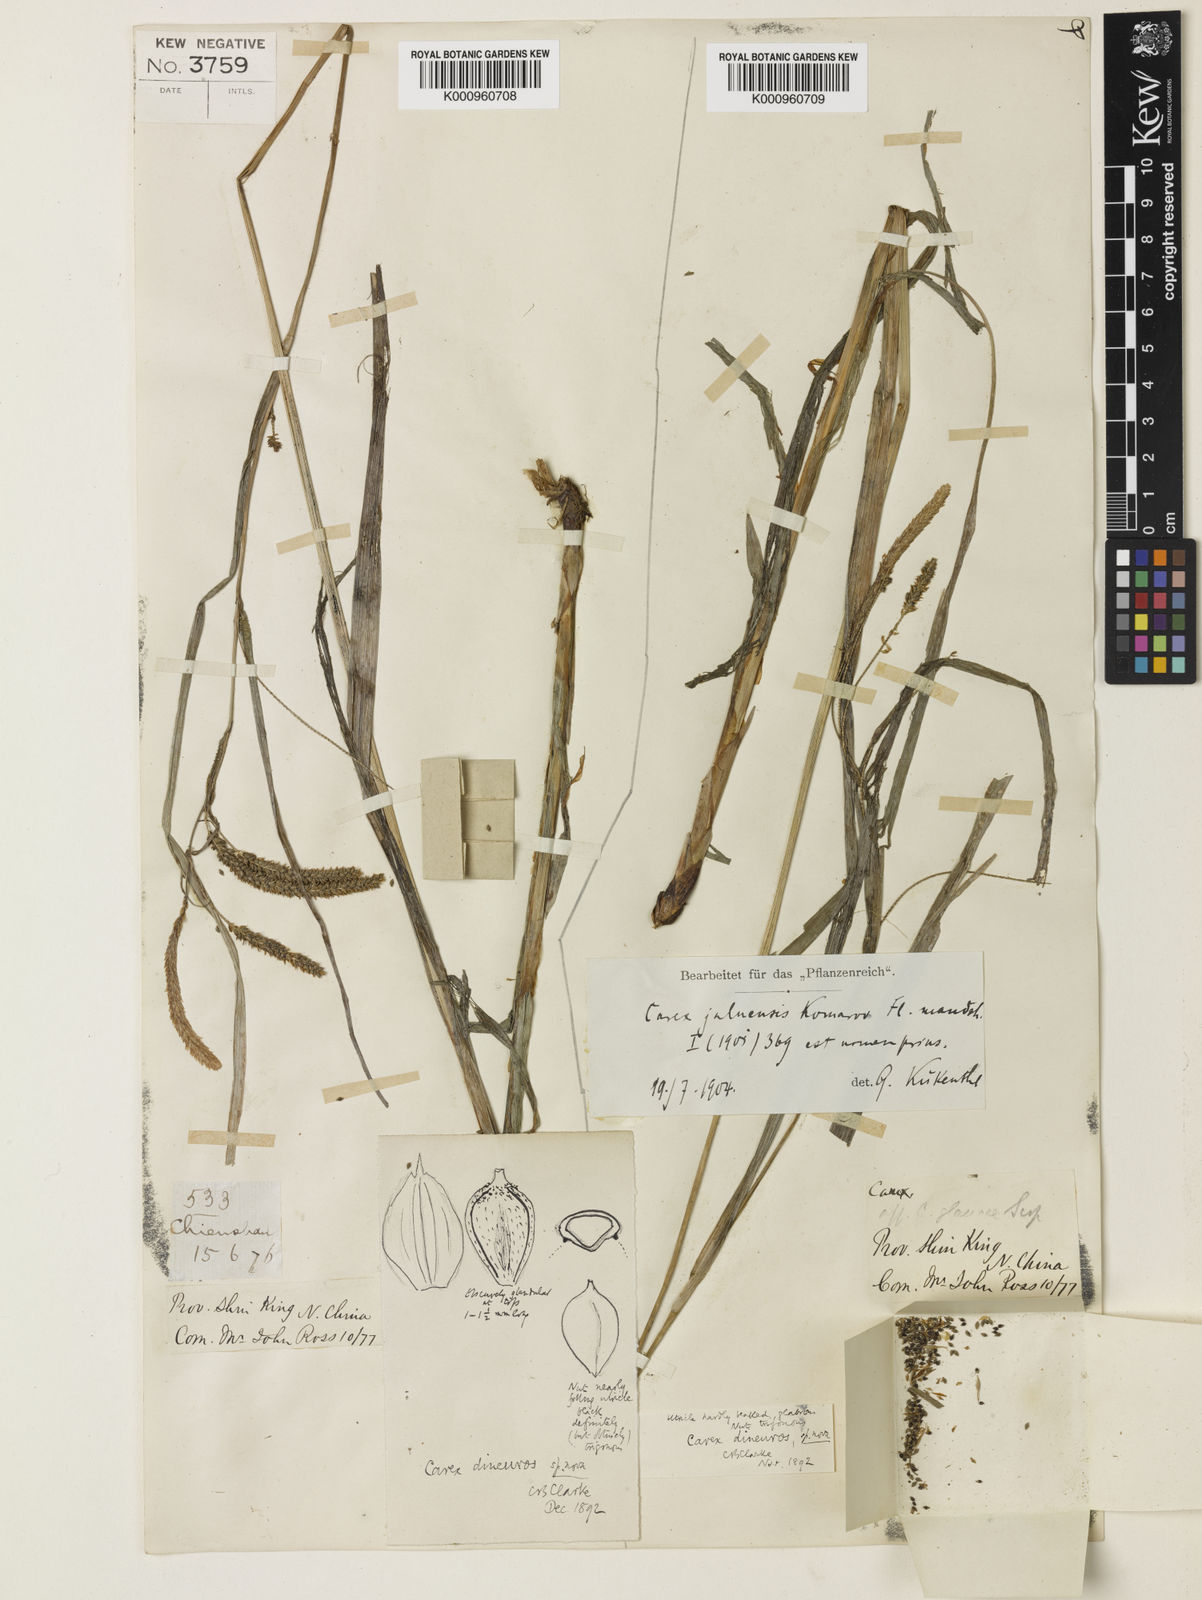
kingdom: Plantae
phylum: Tracheophyta
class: Liliopsida
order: Poales
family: Cyperaceae
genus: Carex
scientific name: Carex jaluensis
